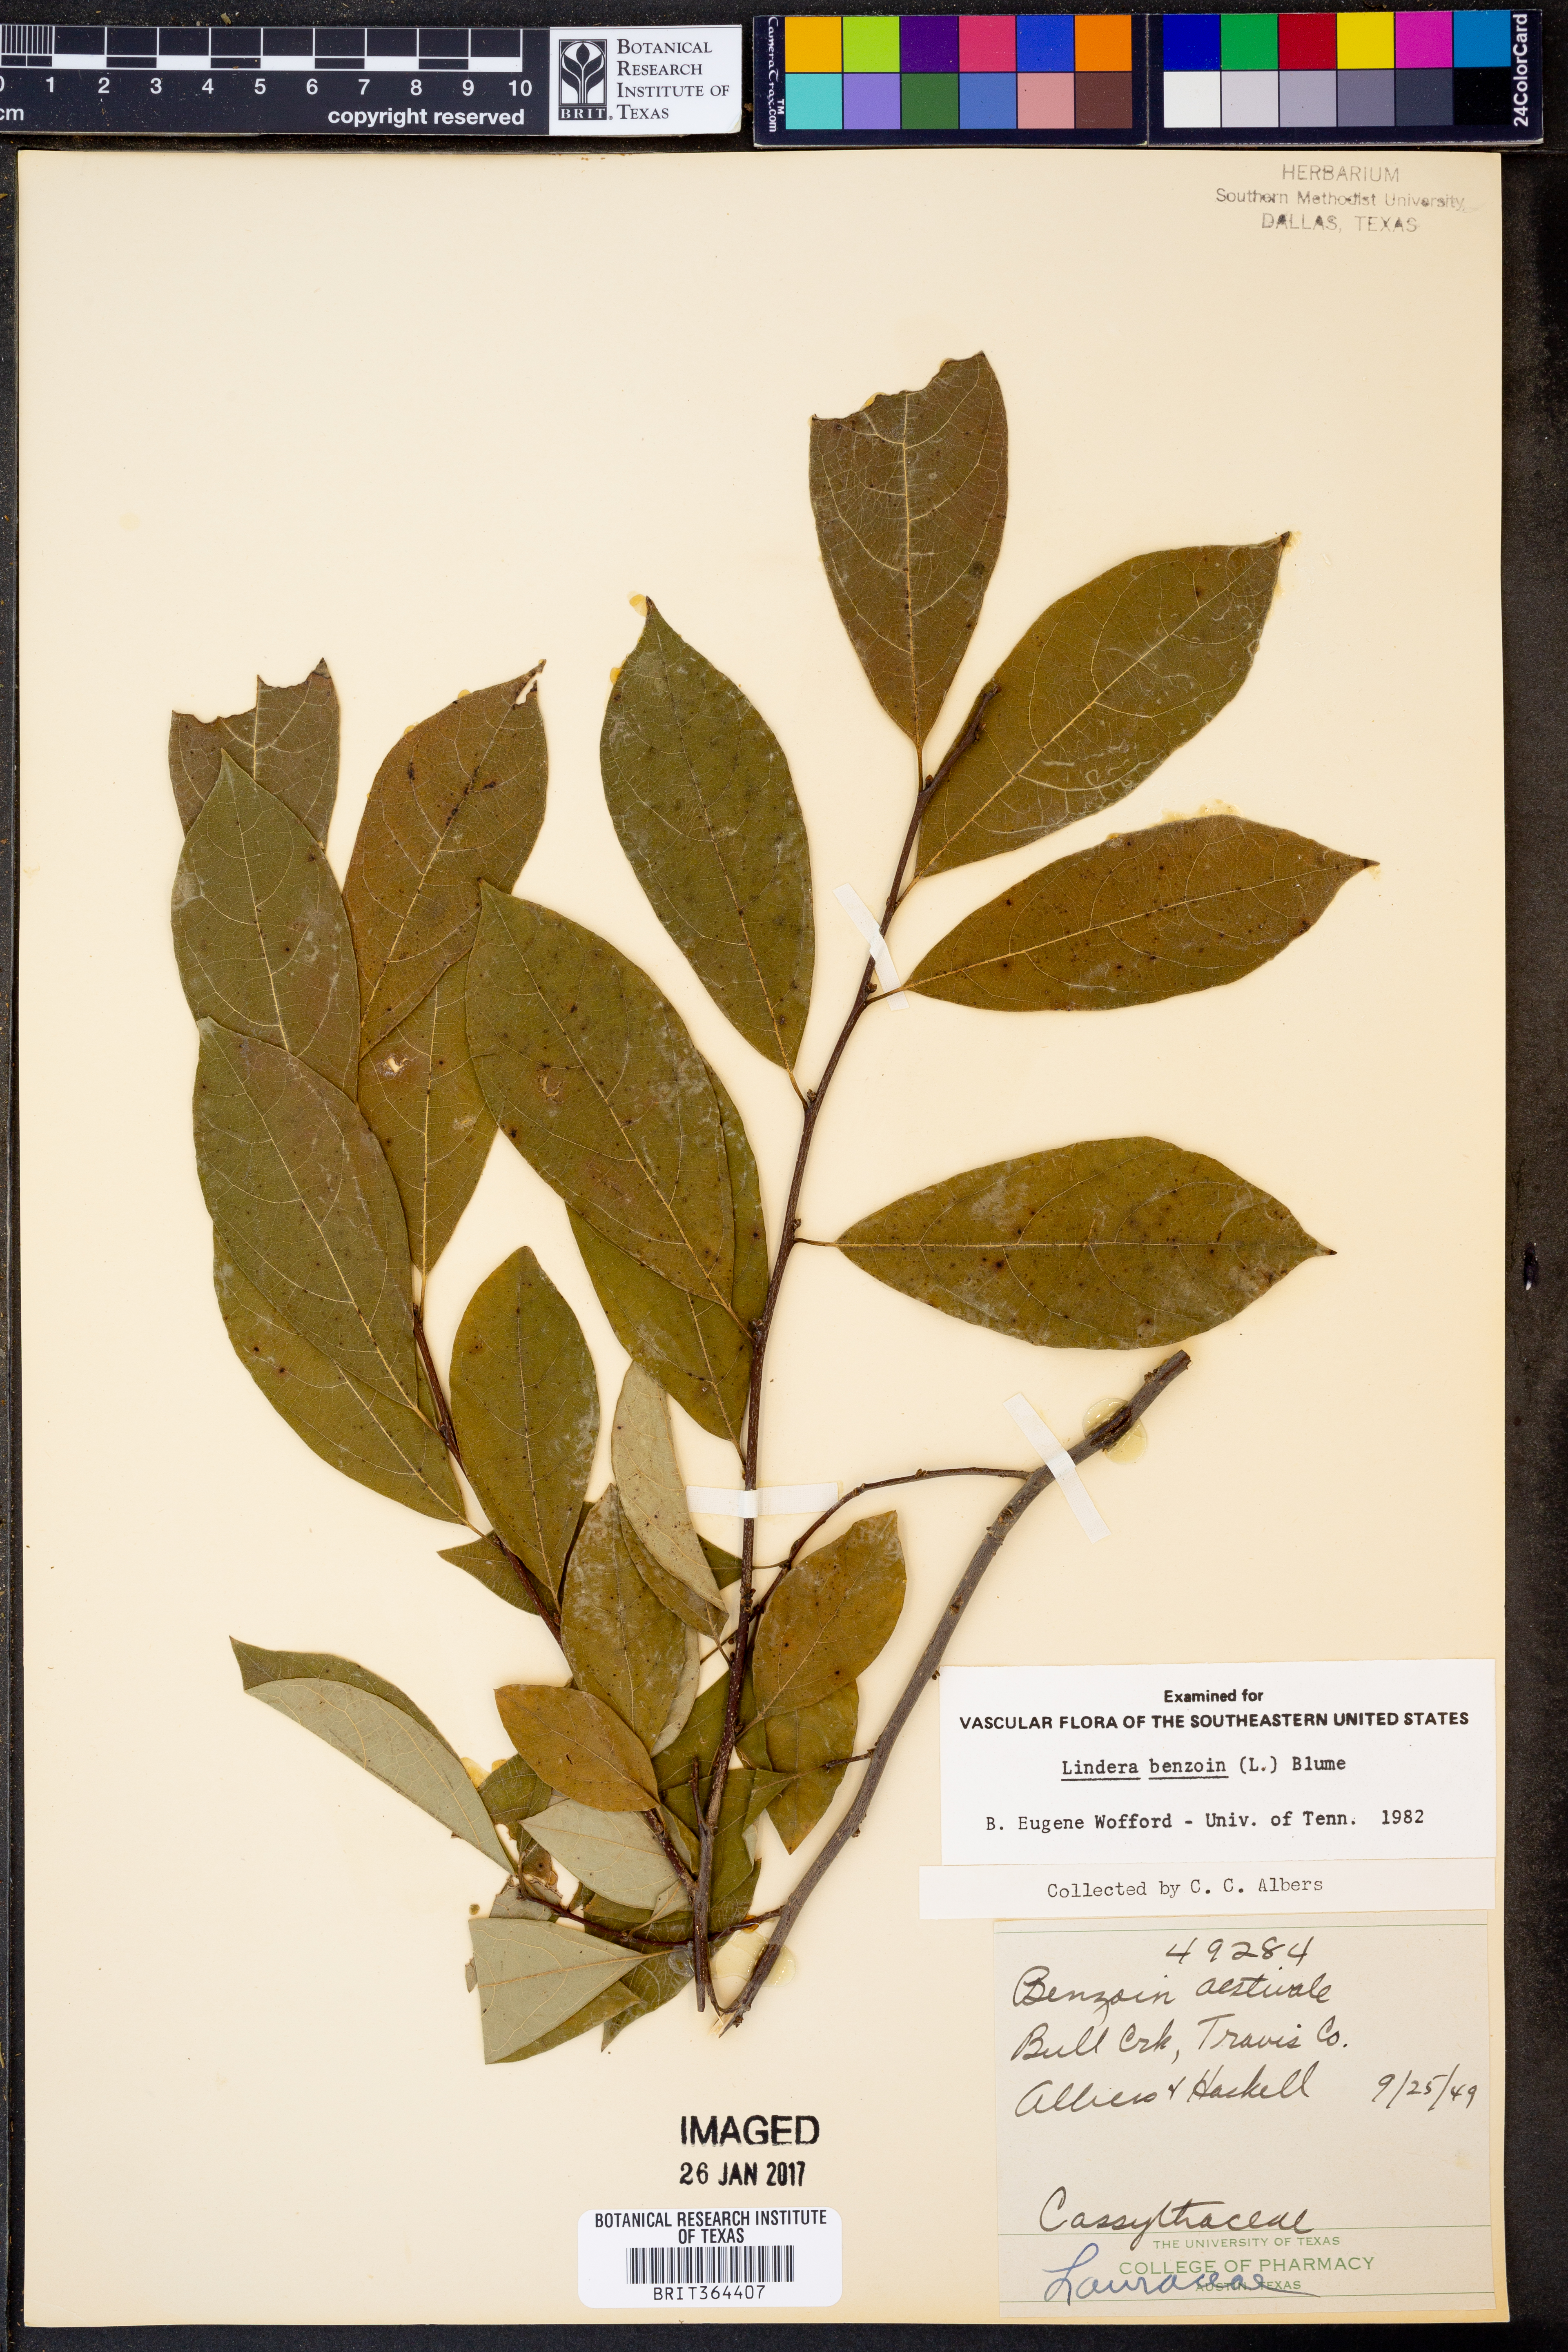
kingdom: Plantae
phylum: Tracheophyta
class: Magnoliopsida
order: Laurales
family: Lauraceae
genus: Lindera
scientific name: Lindera benzoin
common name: Spicebush
